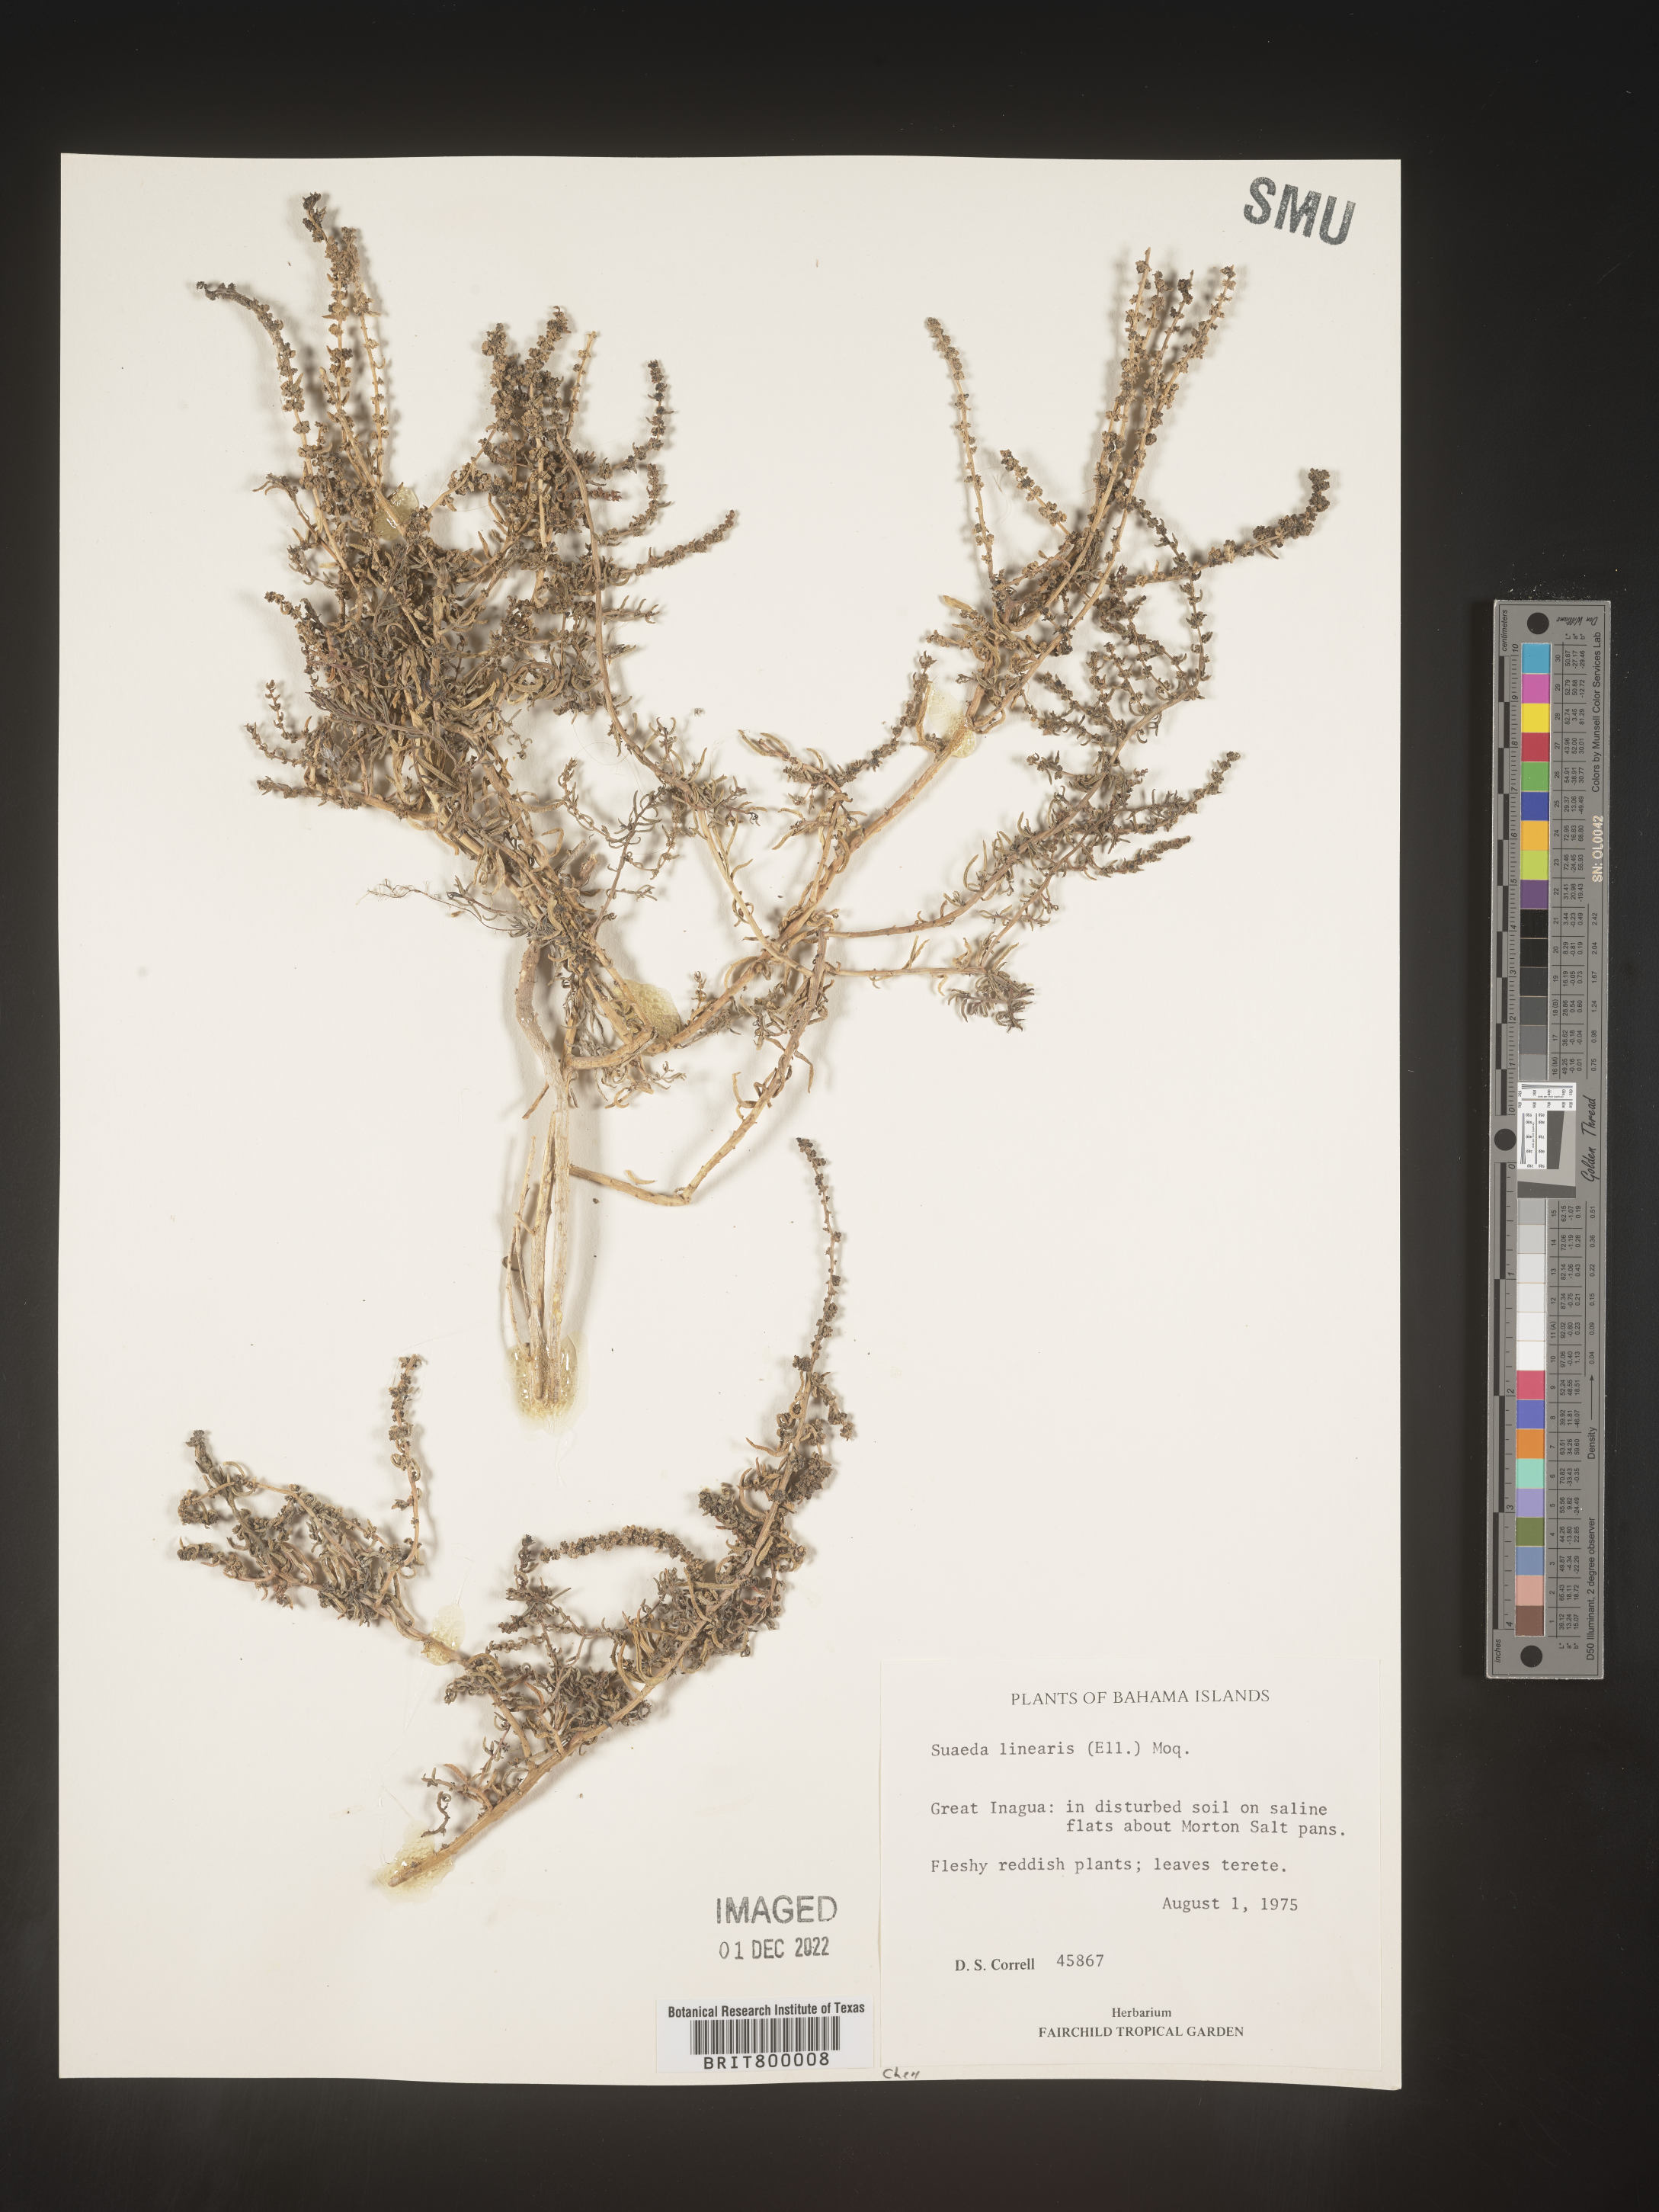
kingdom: Plantae
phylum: Tracheophyta
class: Magnoliopsida
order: Caryophyllales
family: Amaranthaceae
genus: Suaeda
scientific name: Suaeda
